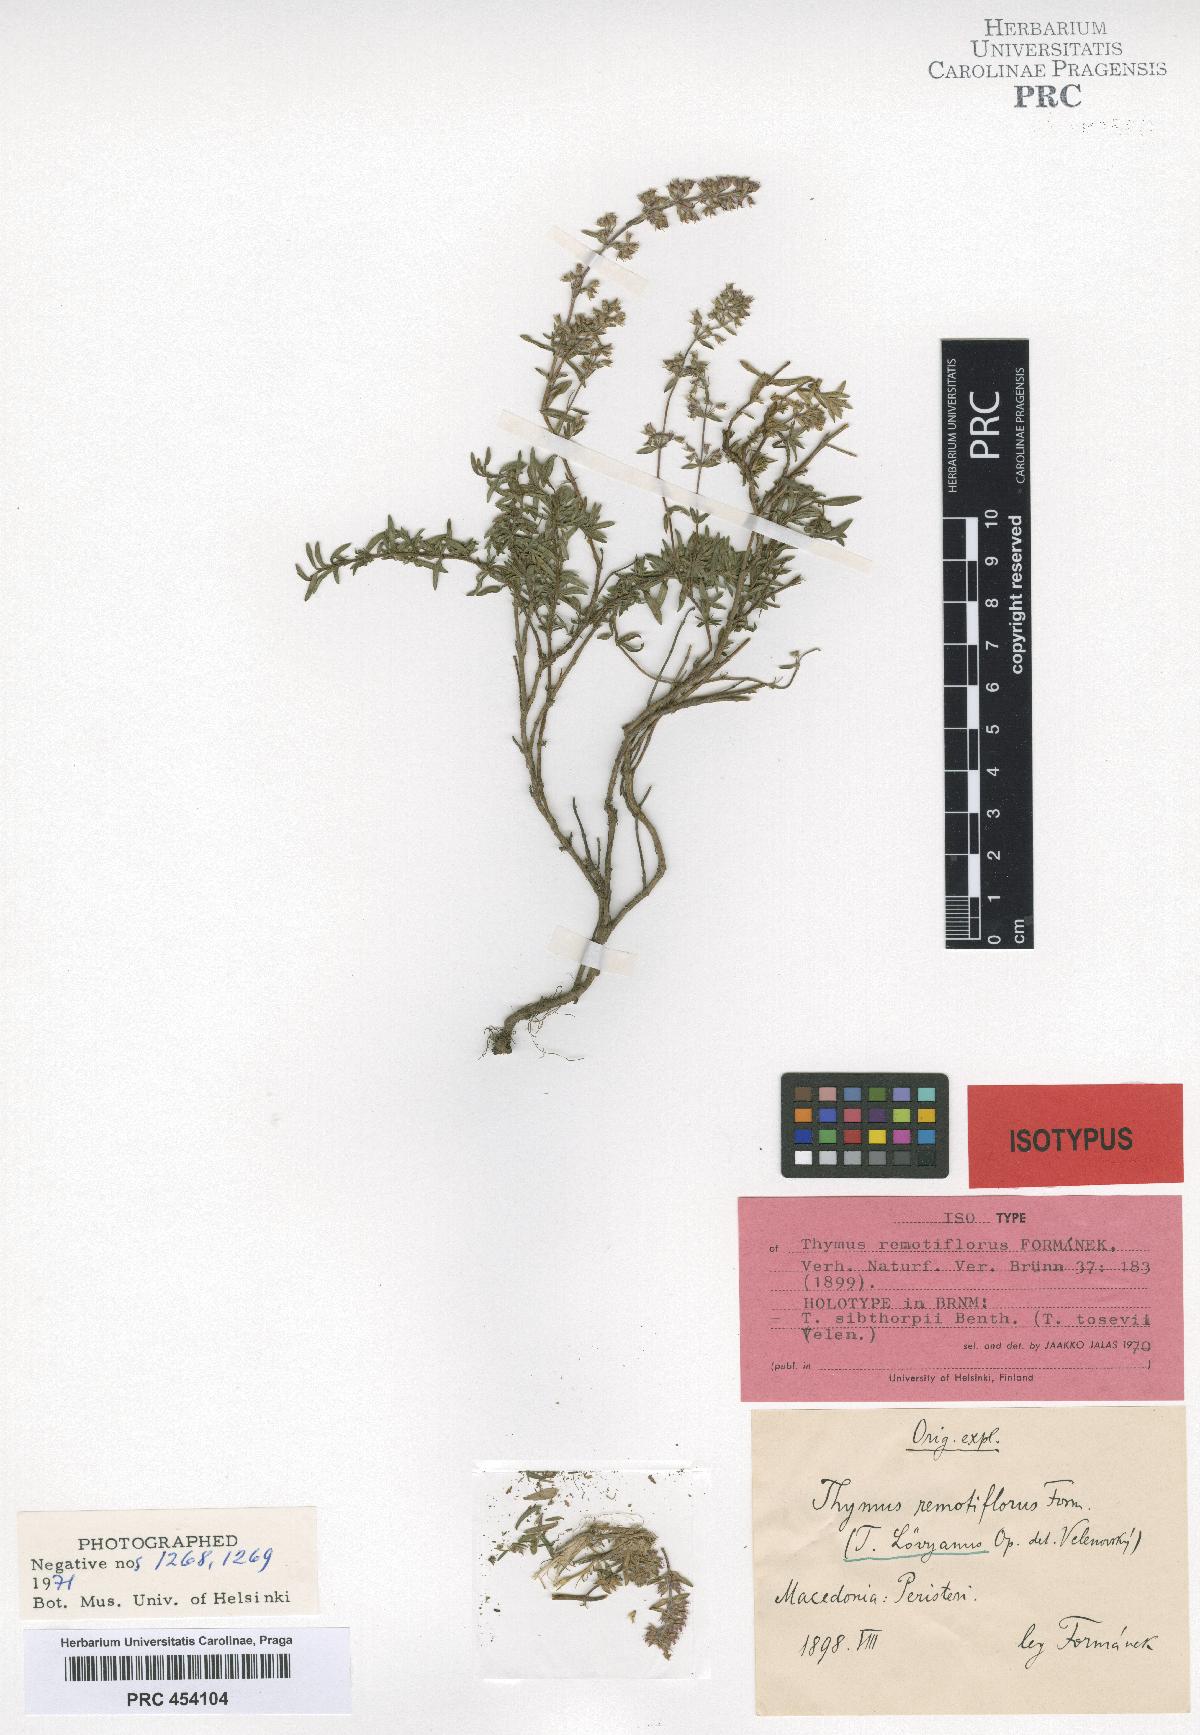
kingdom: Plantae
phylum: Tracheophyta
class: Magnoliopsida
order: Lamiales
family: Lamiaceae
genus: Thymus
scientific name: Thymus remotiflorus
